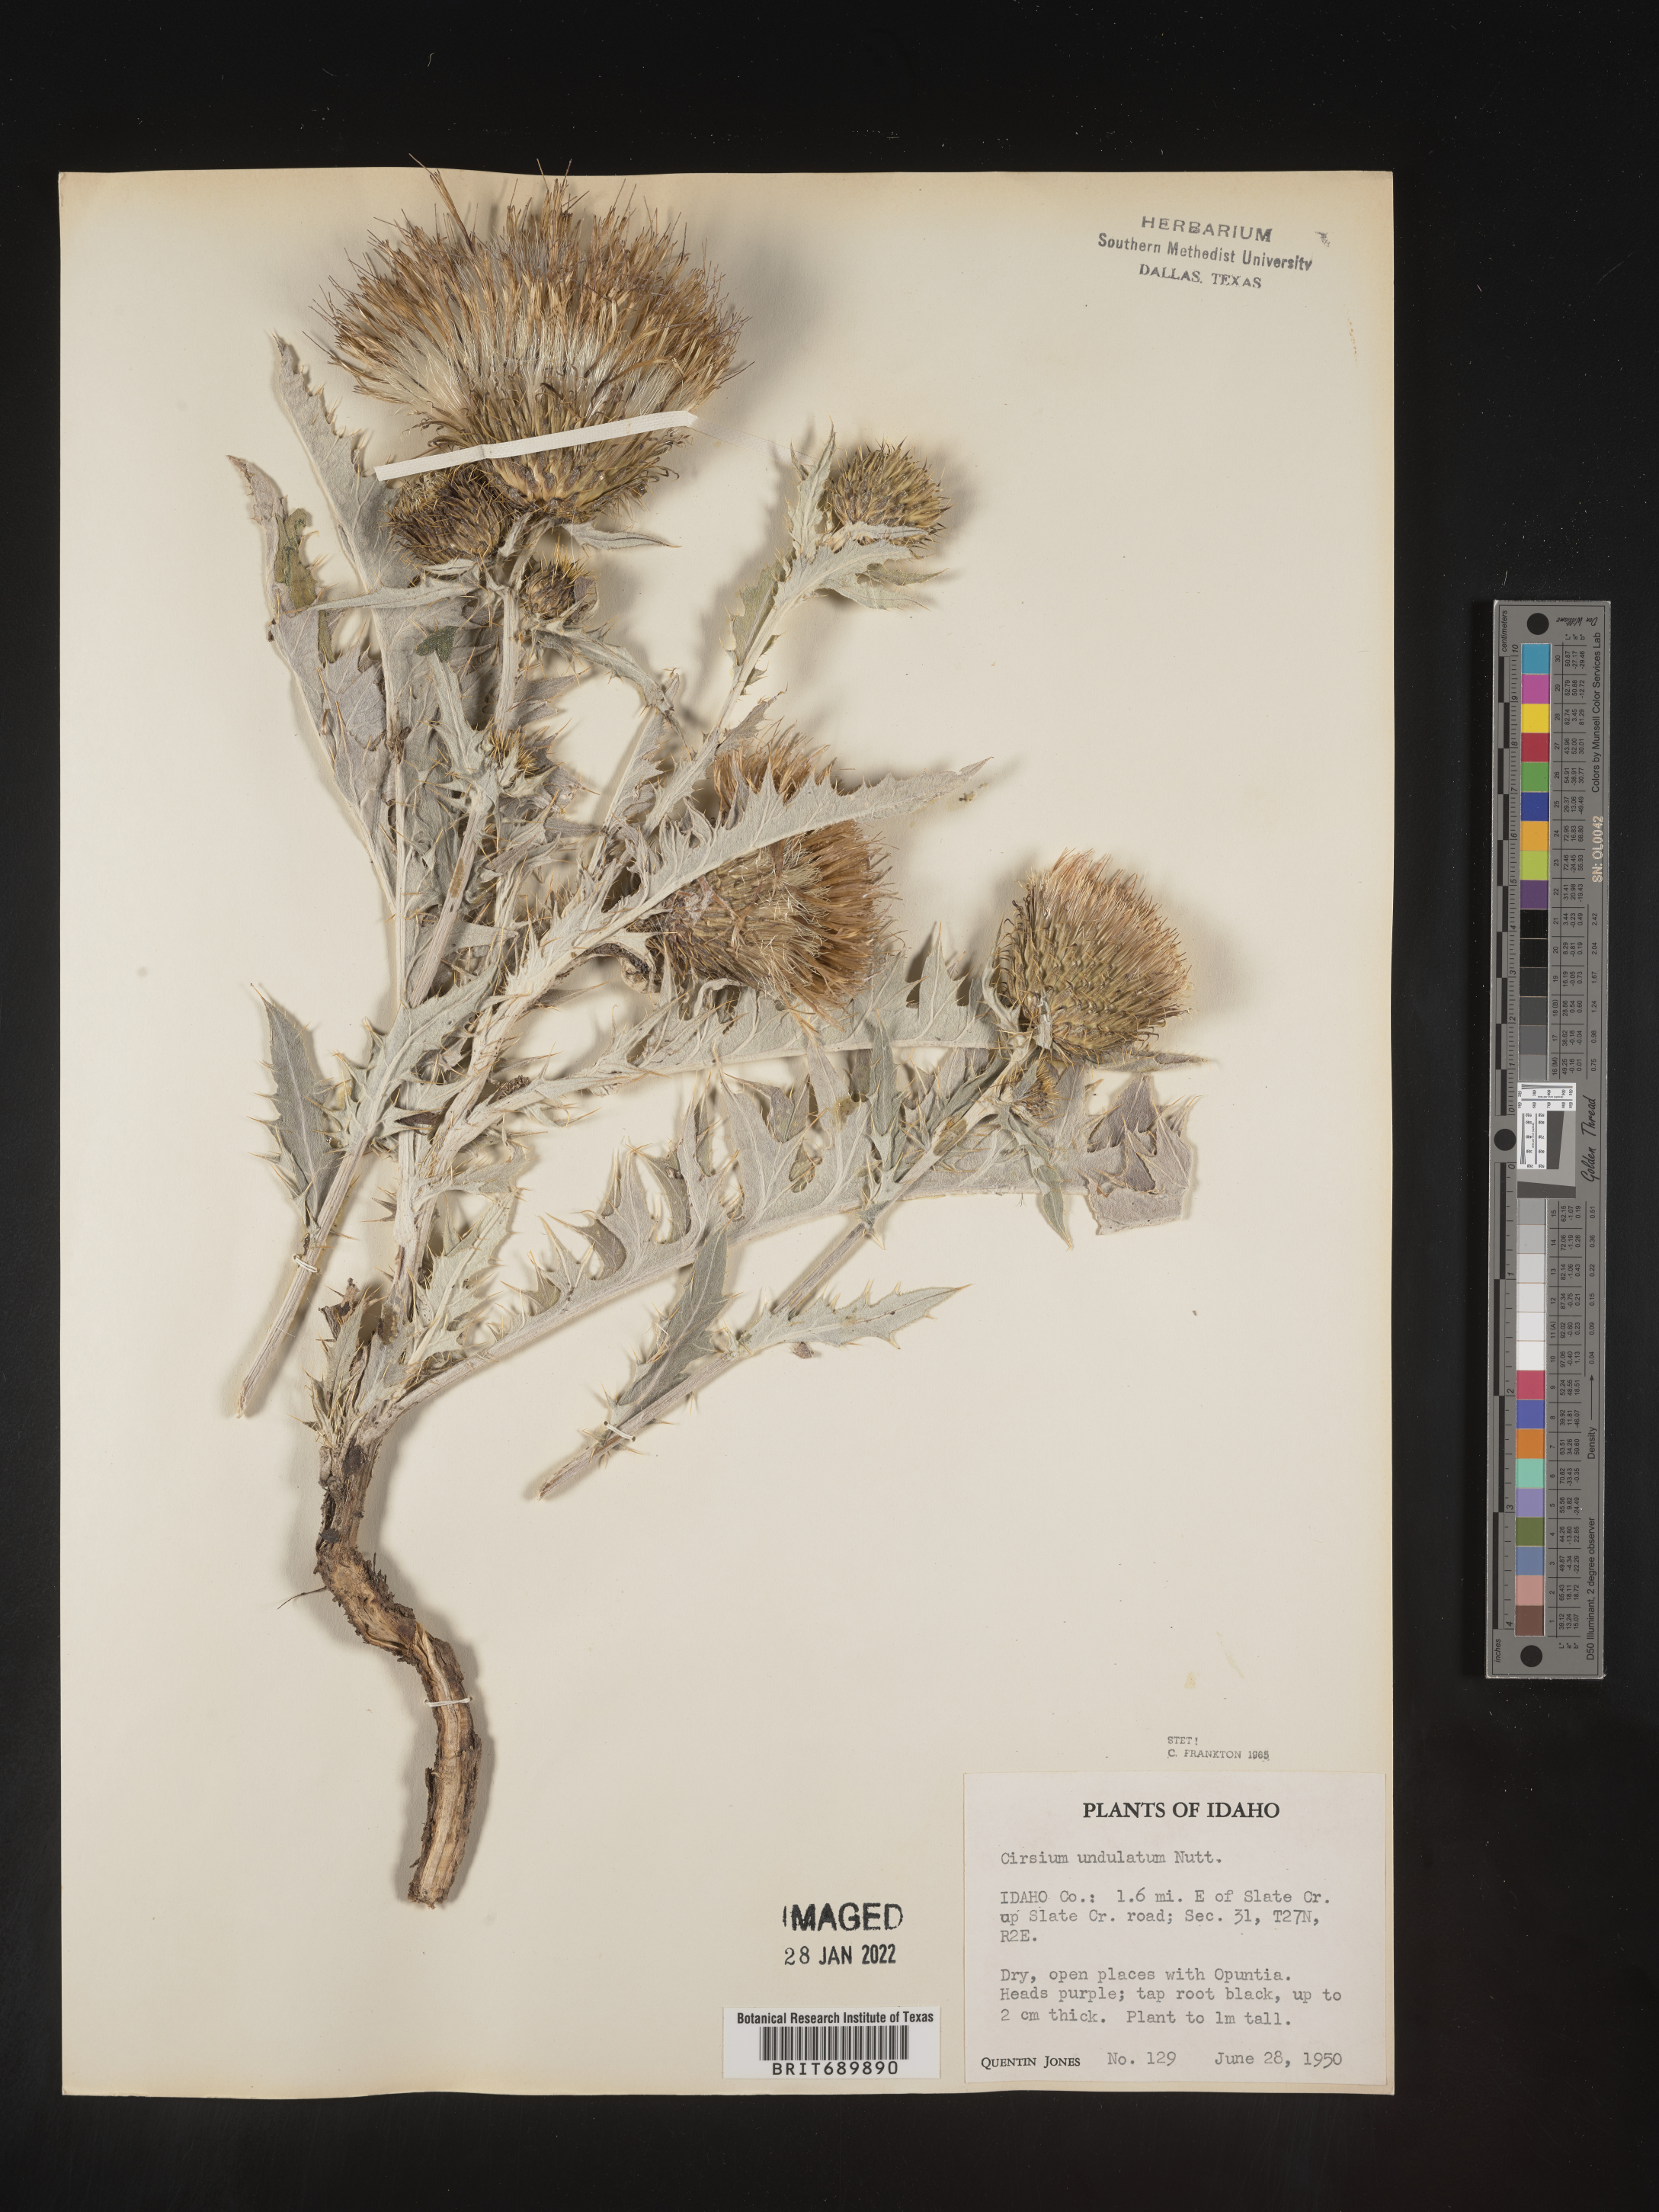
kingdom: Plantae
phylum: Tracheophyta
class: Magnoliopsida
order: Asterales
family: Asteraceae
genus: Cirsium
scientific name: Cirsium undulatum
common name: Pasture thistle
